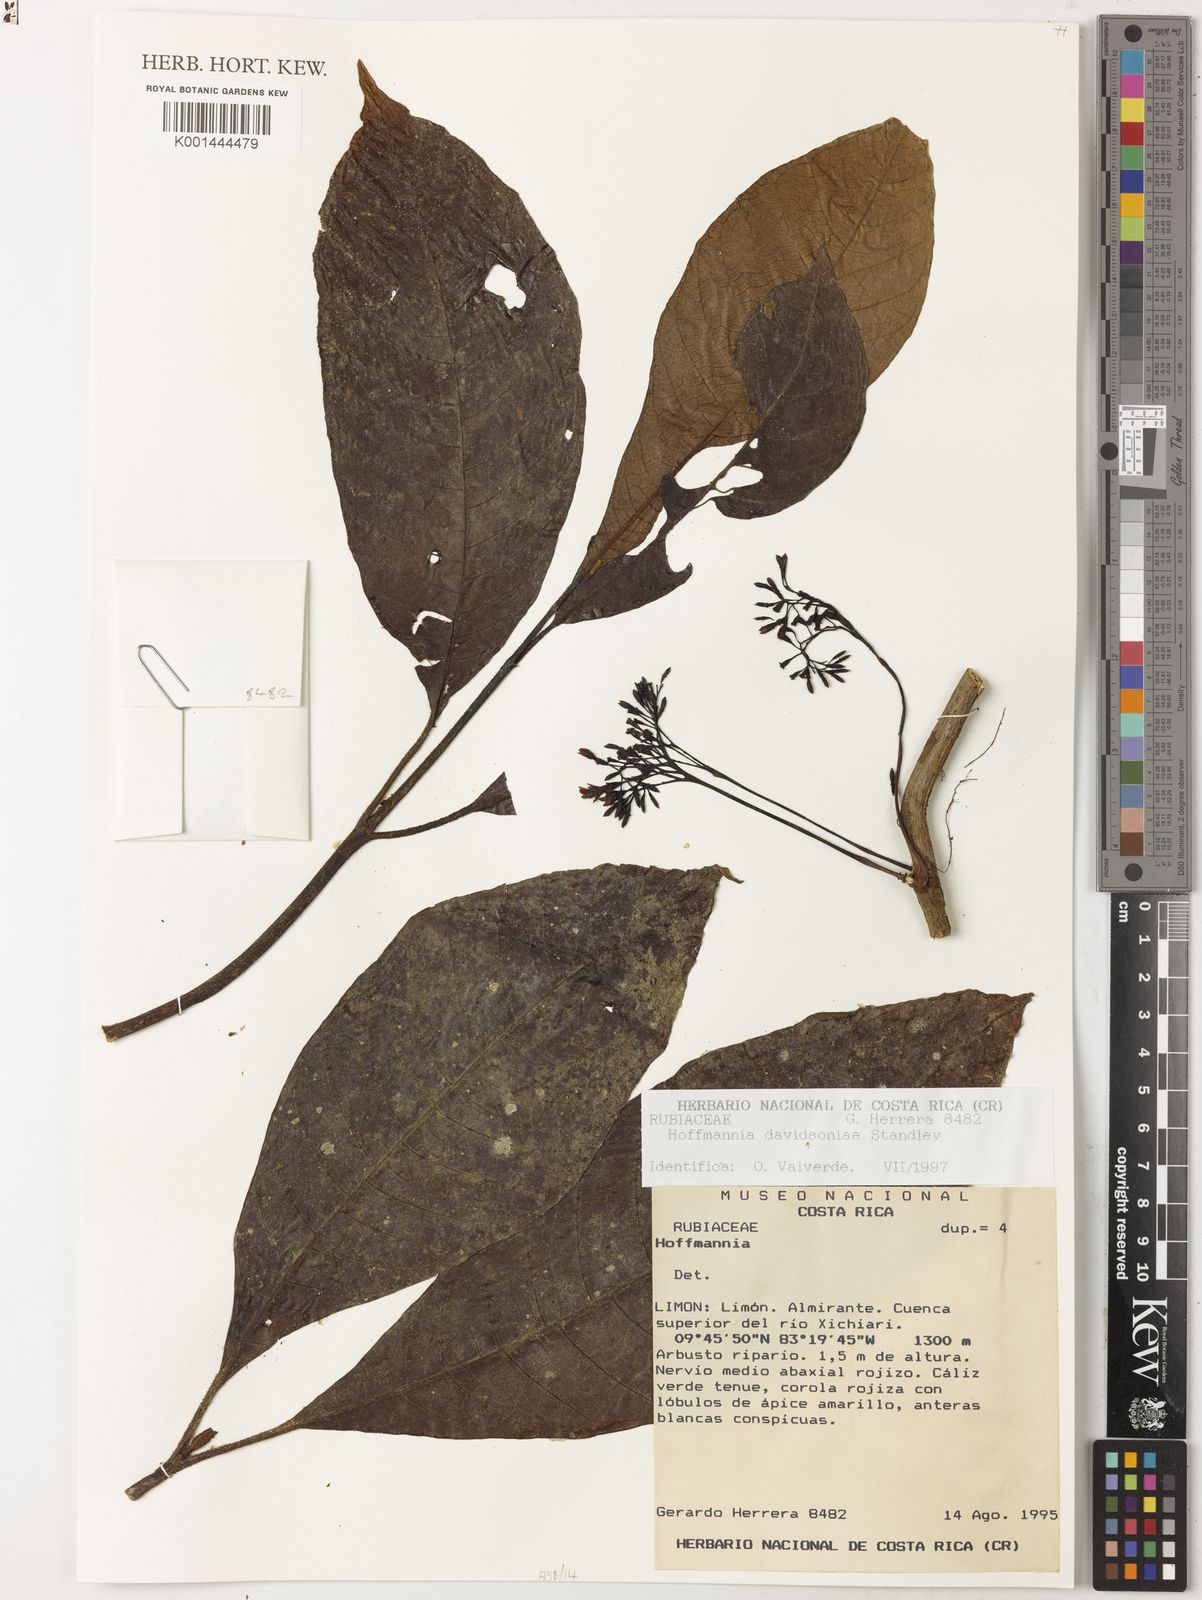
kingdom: Plantae
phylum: Tracheophyta
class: Magnoliopsida
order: Gentianales
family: Rubiaceae
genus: Hoffmannia
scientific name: Hoffmannia davidsoniae
